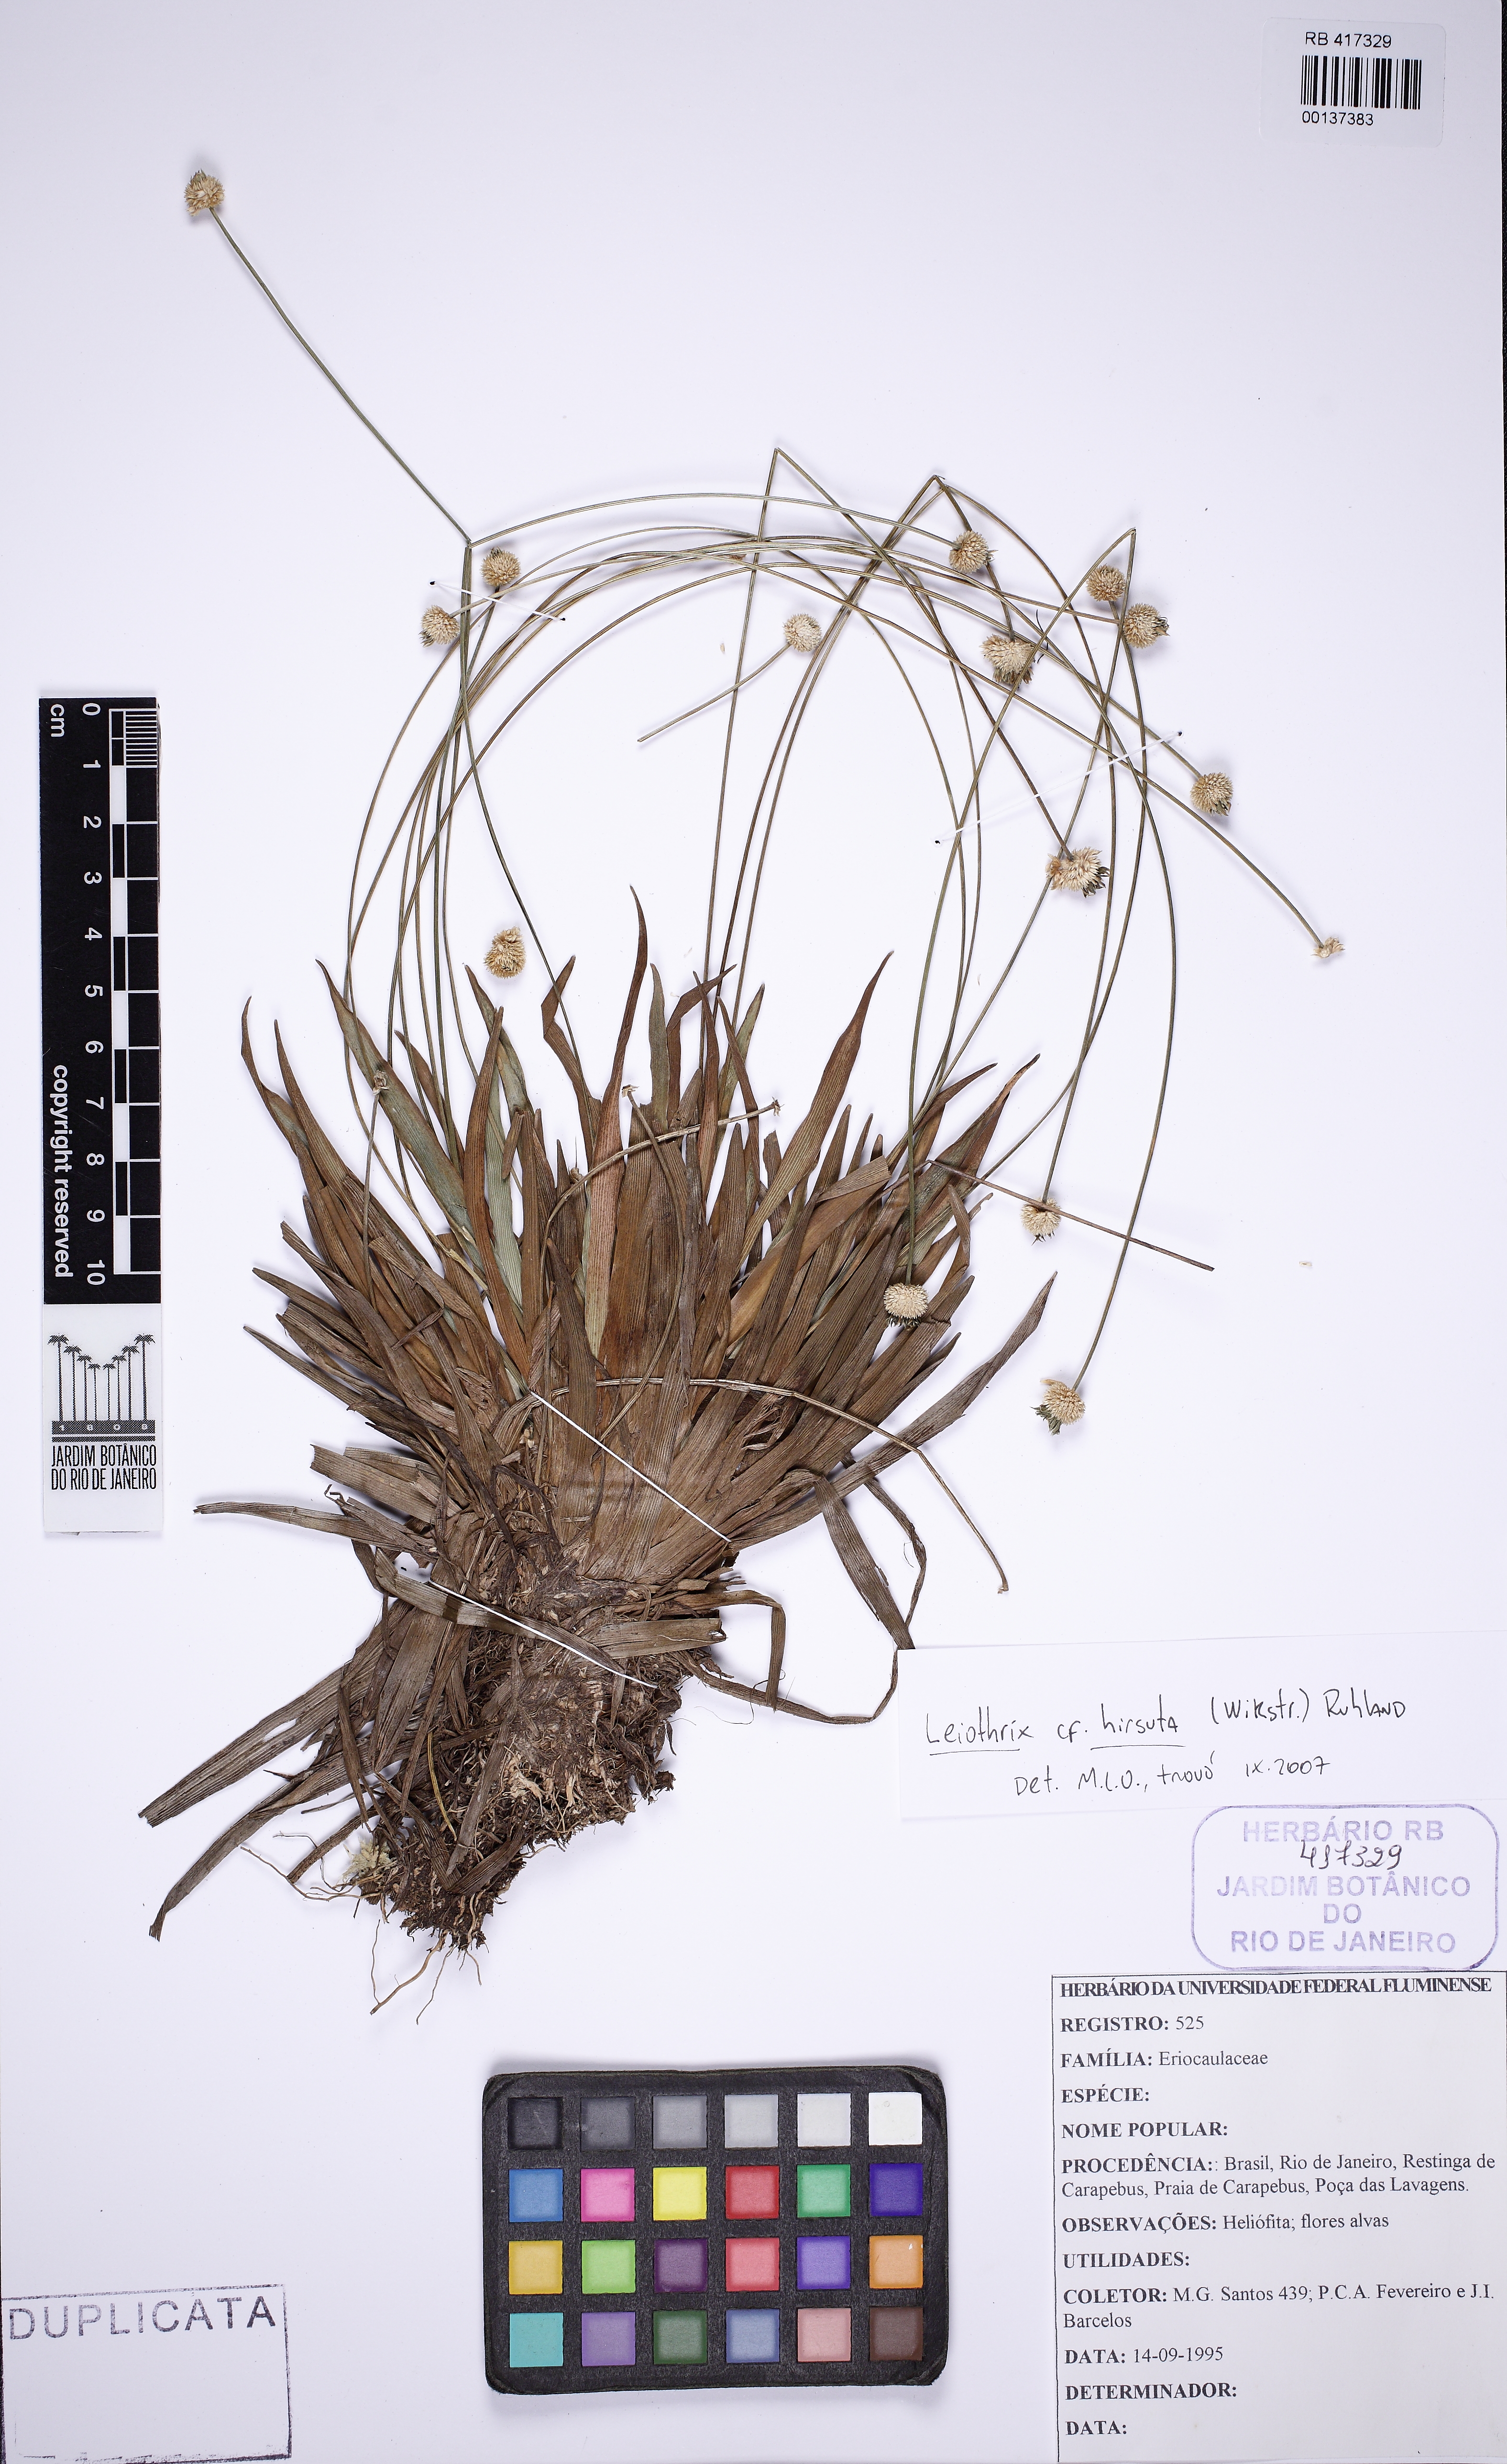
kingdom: Plantae
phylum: Tracheophyta
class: Liliopsida
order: Poales
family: Eriocaulaceae
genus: Leiothrix
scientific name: Leiothrix hirsuta
